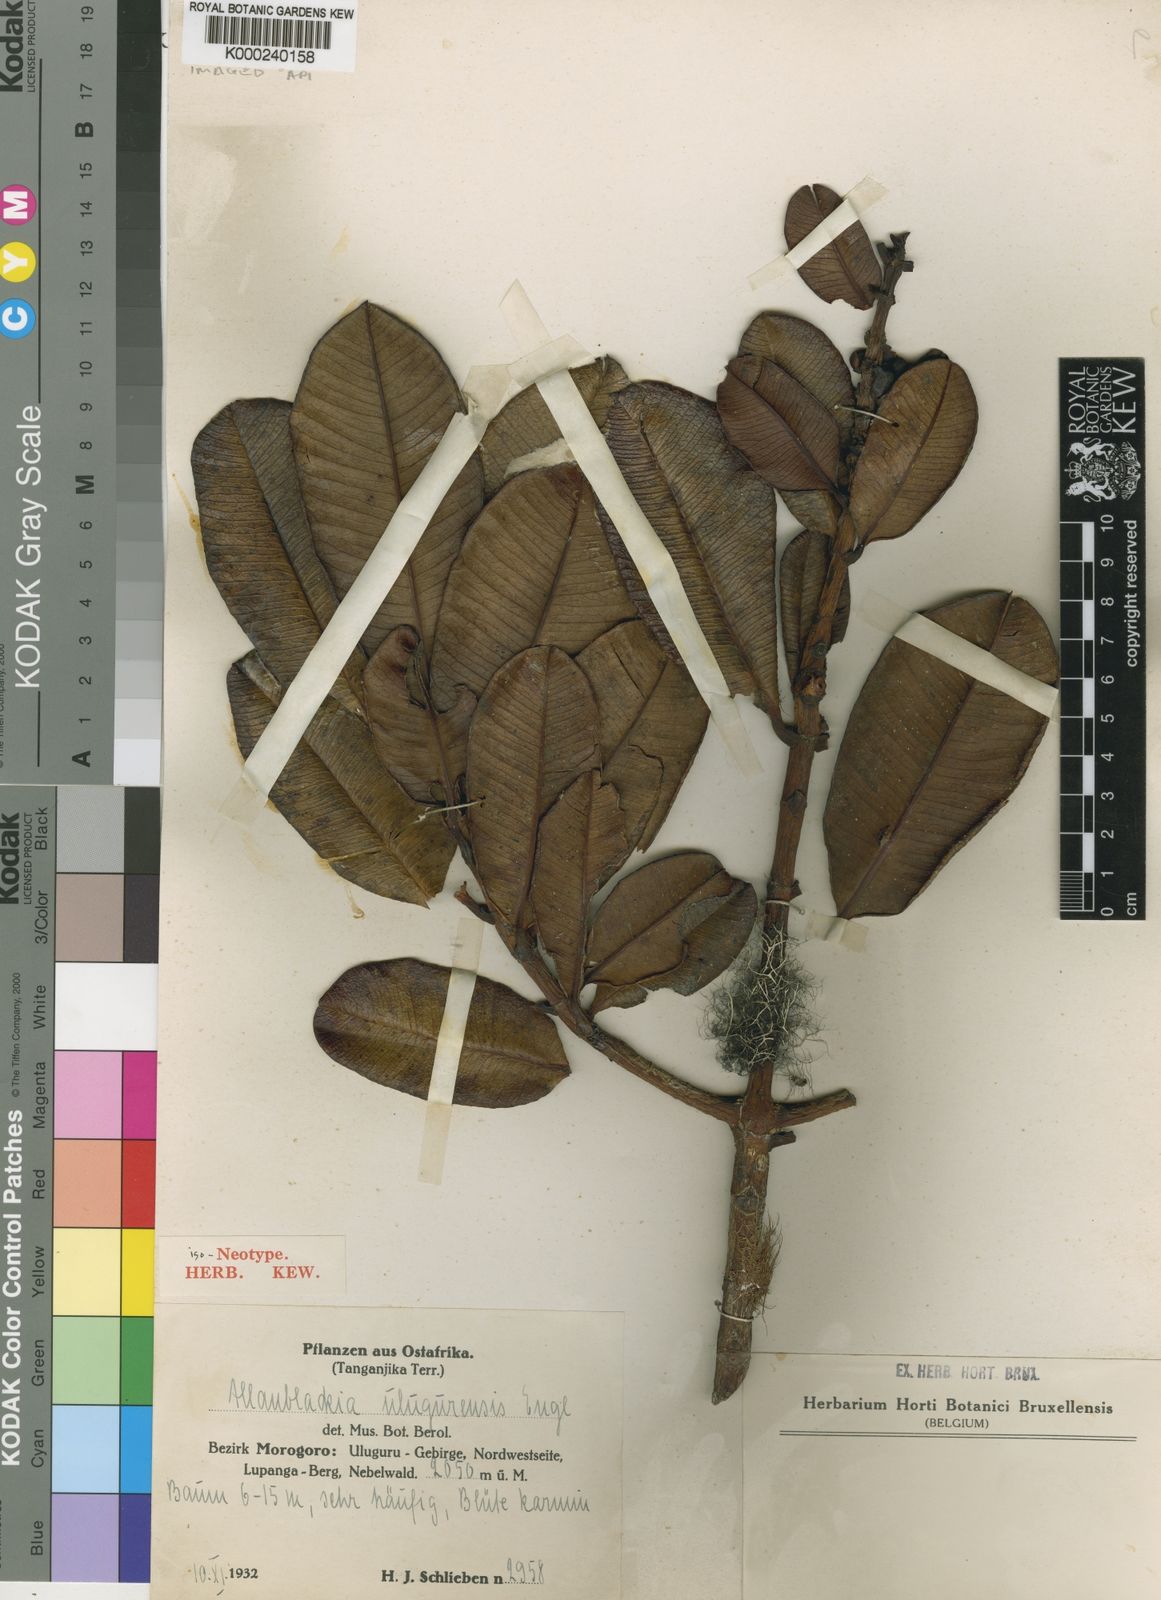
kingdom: Plantae
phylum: Tracheophyta
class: Magnoliopsida
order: Malpighiales
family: Clusiaceae
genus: Allanblackia
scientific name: Allanblackia ulugurensis
